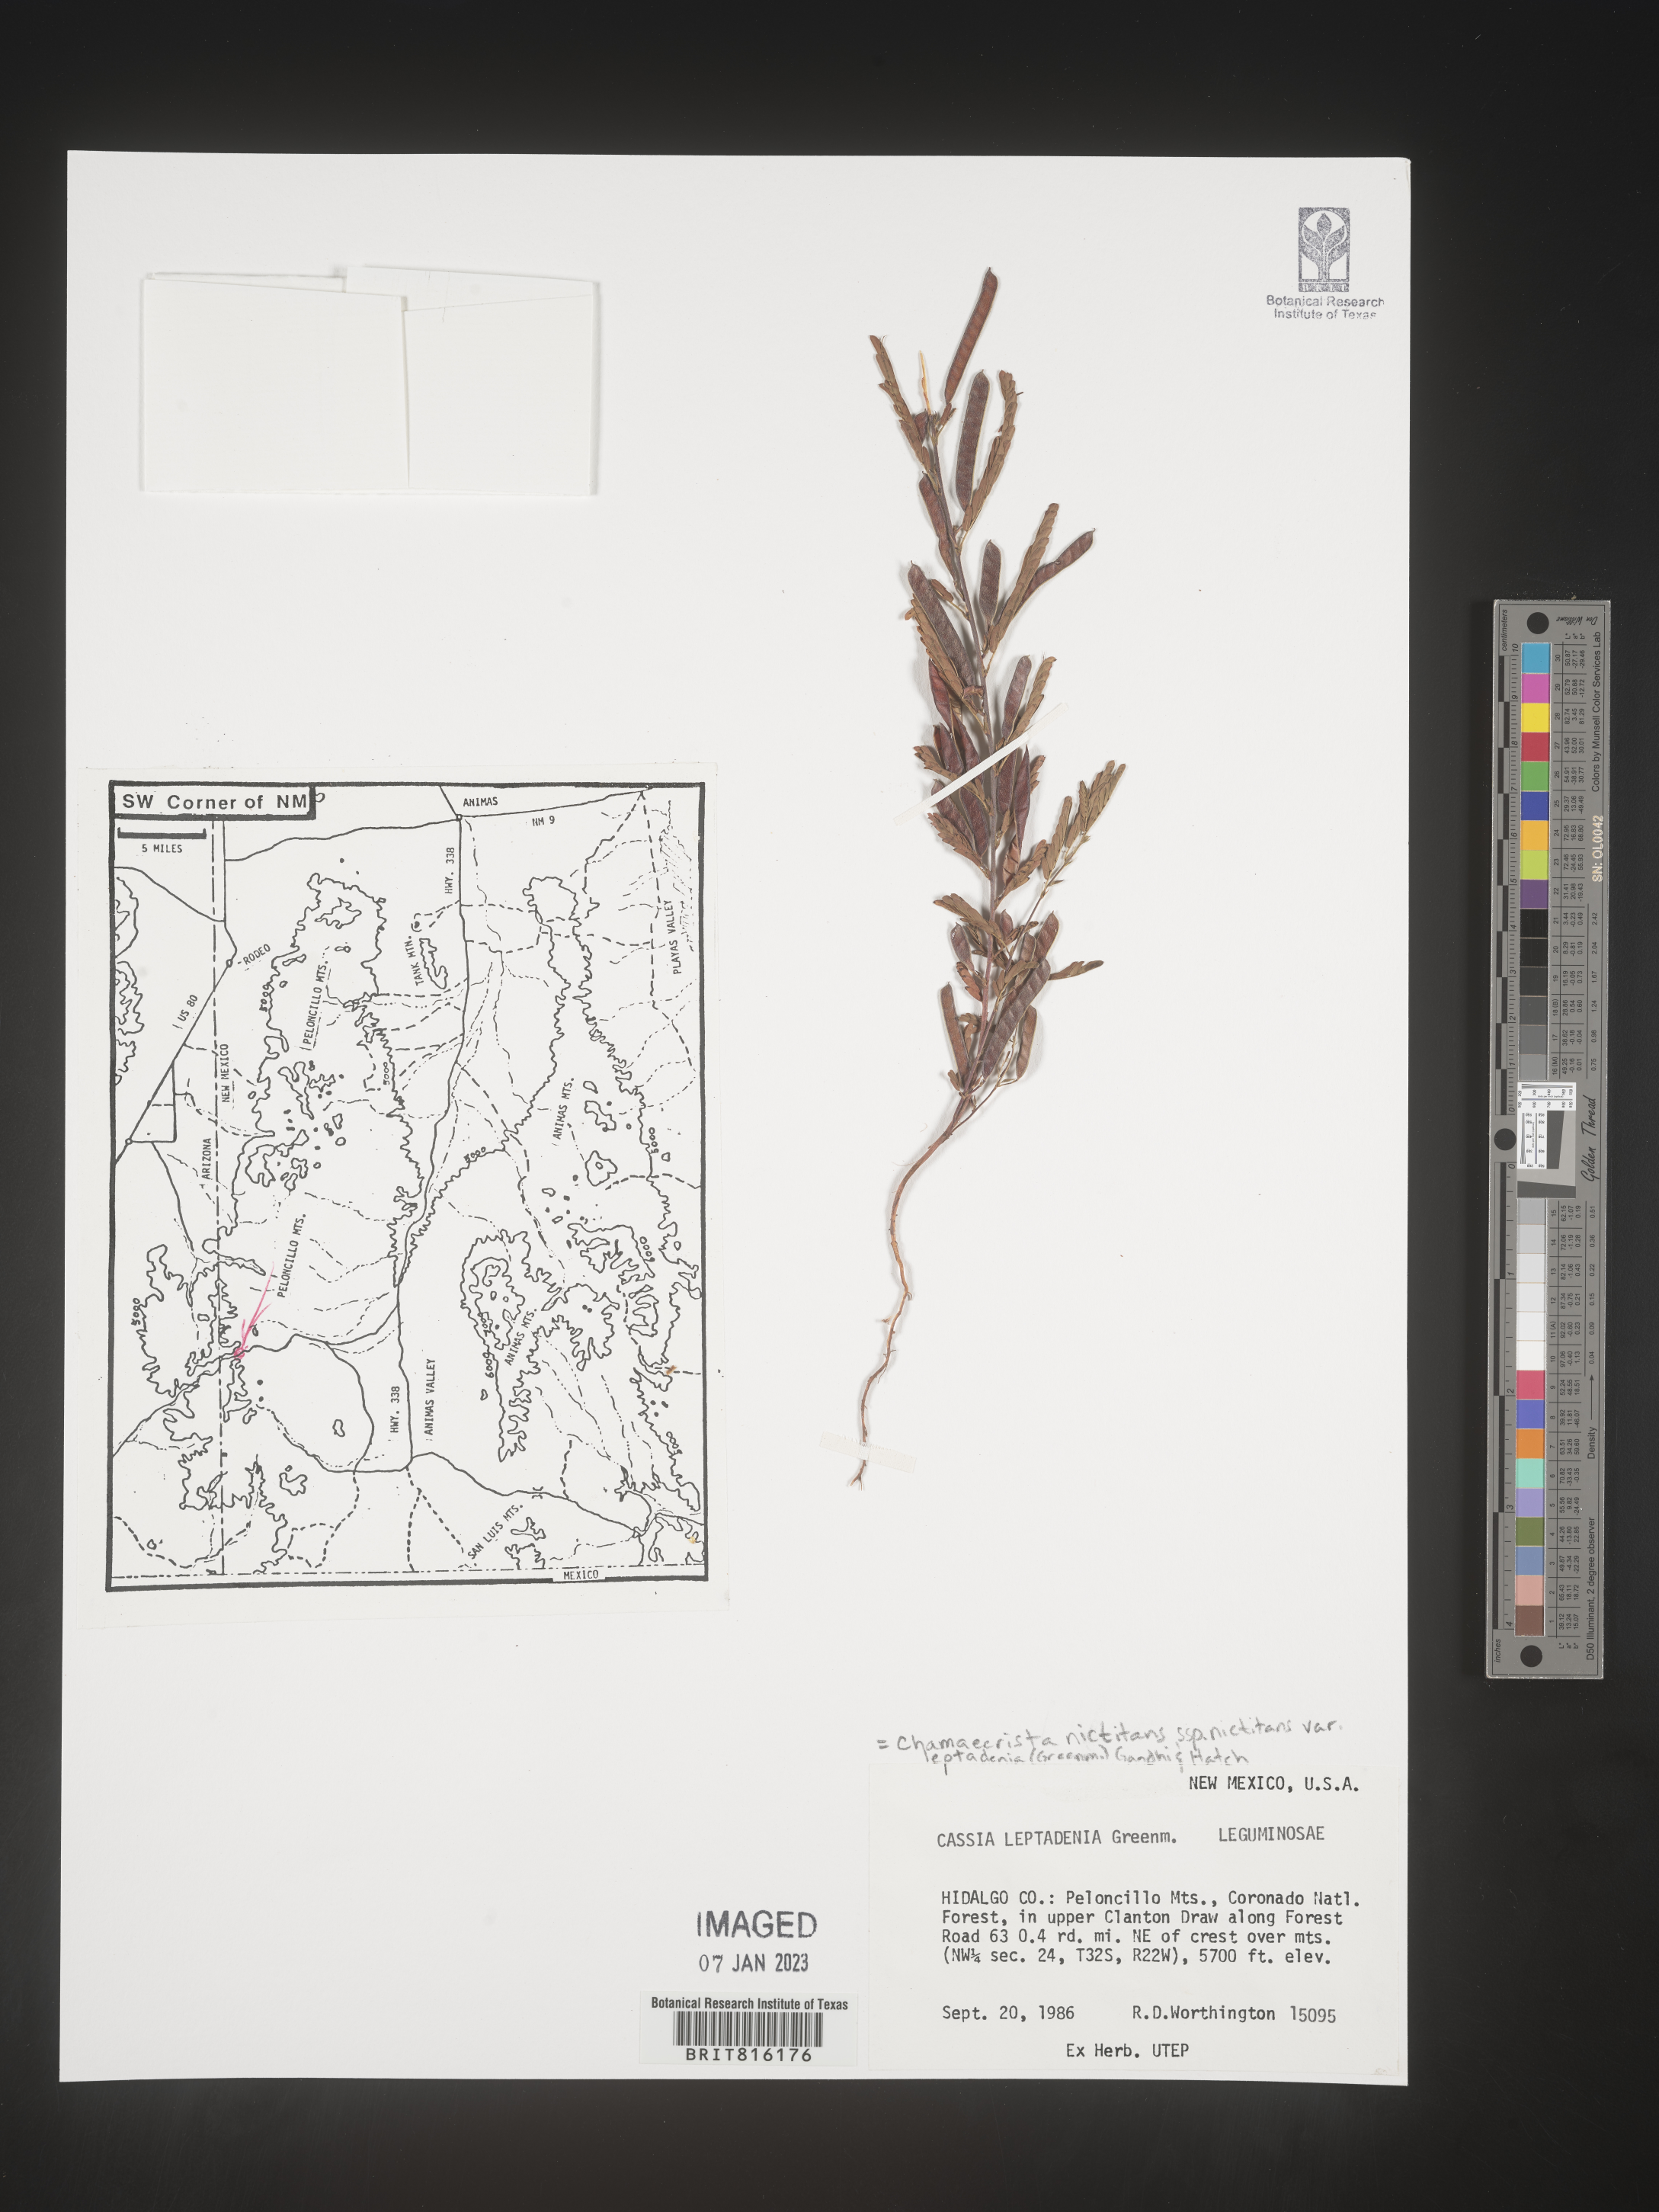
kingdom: Plantae
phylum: Tracheophyta
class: Magnoliopsida
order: Fabales
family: Fabaceae
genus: Chamaecrista
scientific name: Chamaecrista
